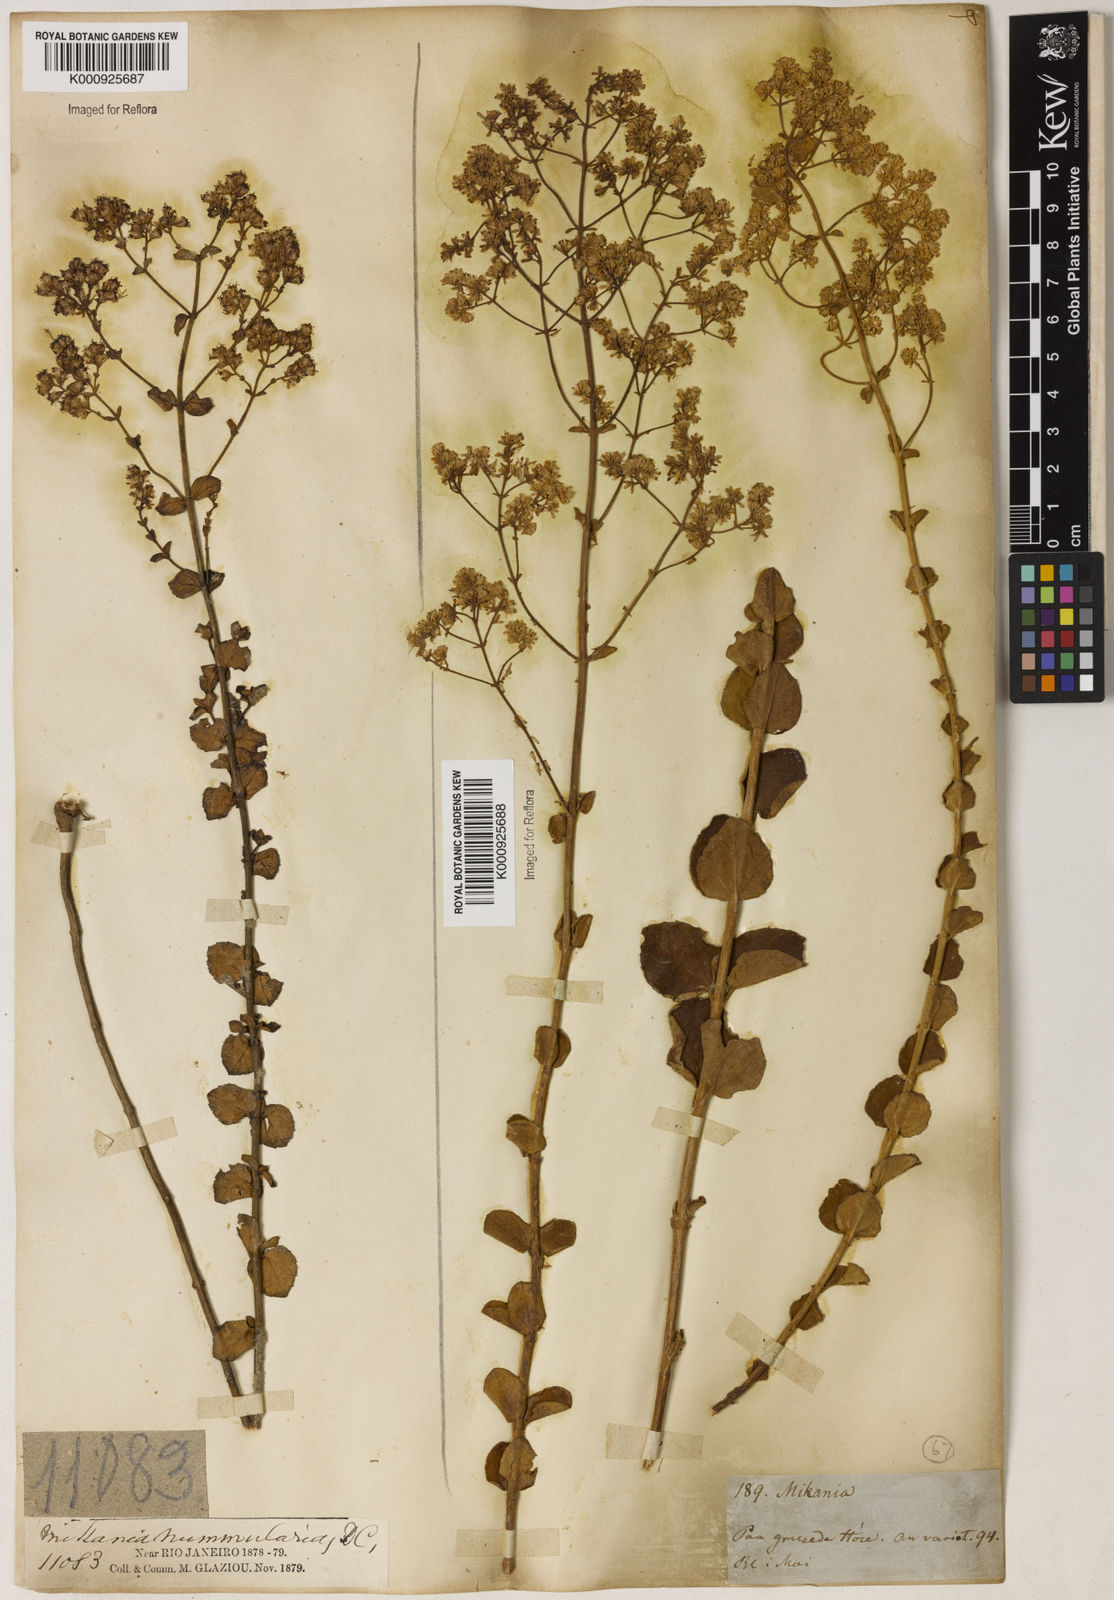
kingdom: Plantae
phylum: Tracheophyta
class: Magnoliopsida
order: Asterales
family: Asteraceae
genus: Mikania
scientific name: Mikania nummularia
